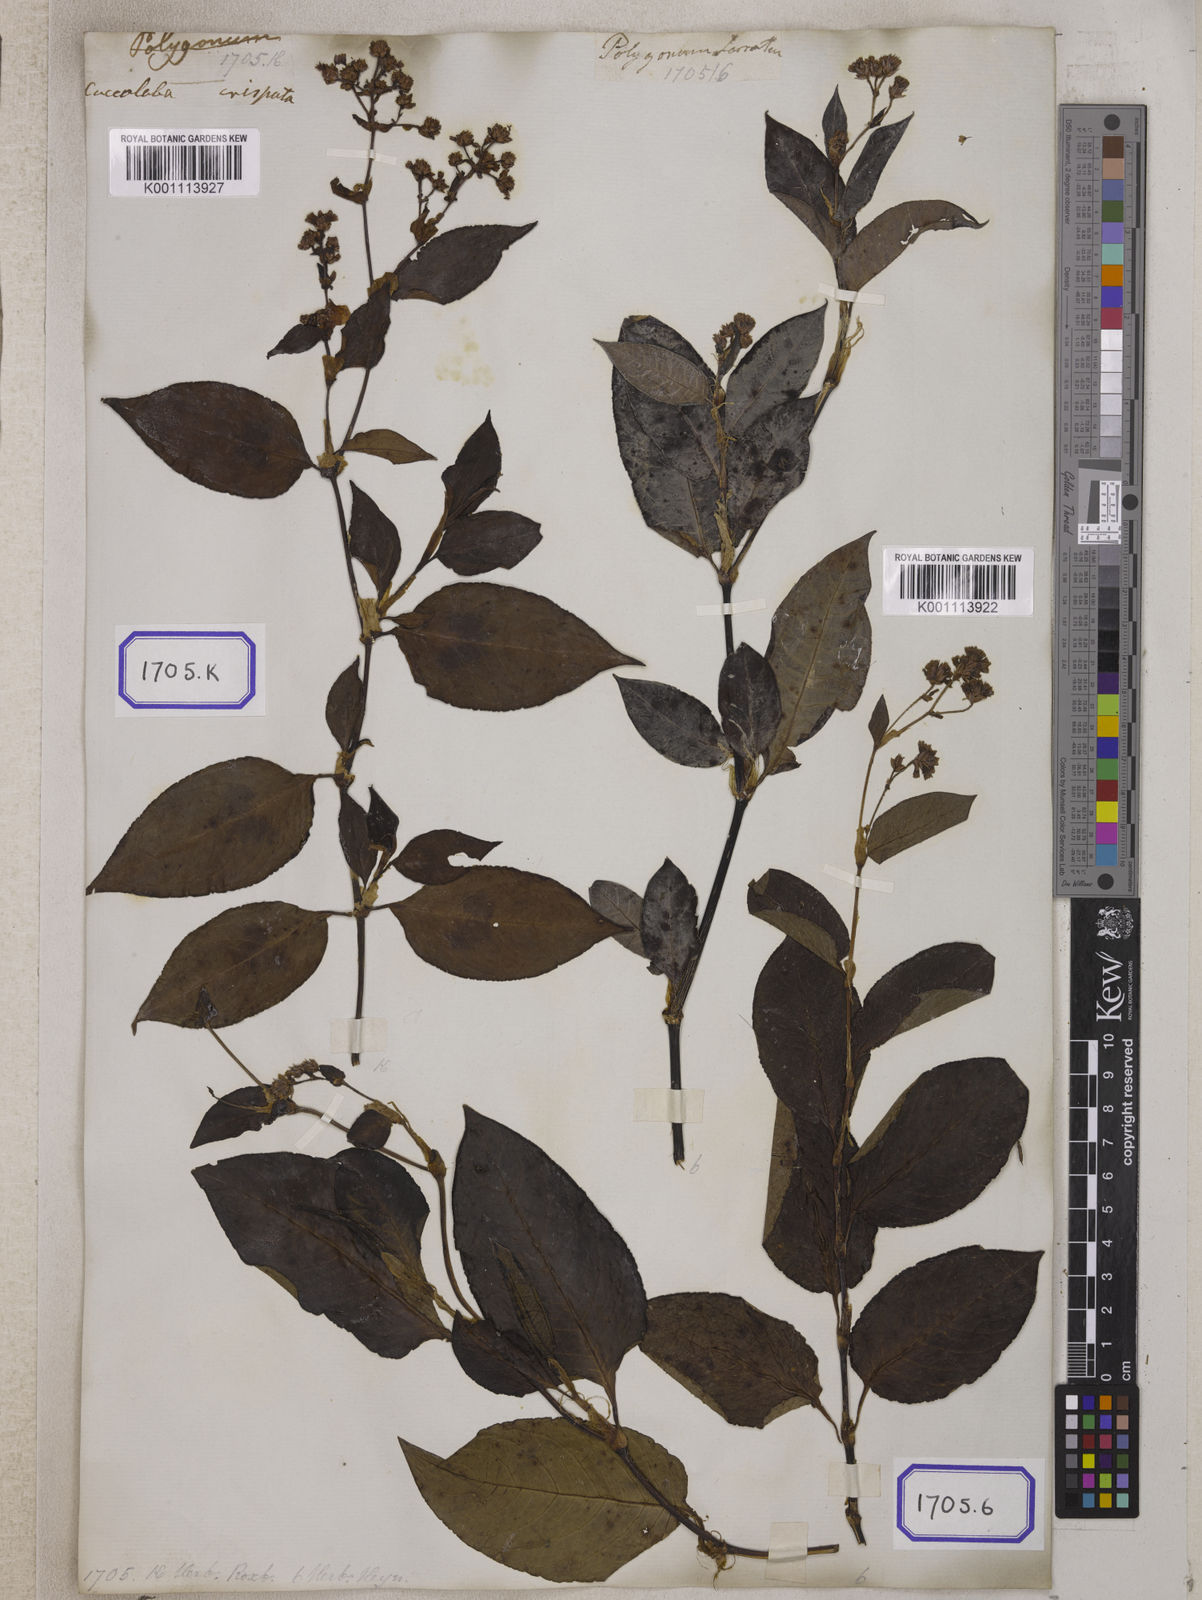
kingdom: Plantae
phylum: Tracheophyta
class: Magnoliopsida
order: Caryophyllales
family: Polygonaceae
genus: Persicaria
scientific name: Persicaria chinensis
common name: Chinese knotweed
